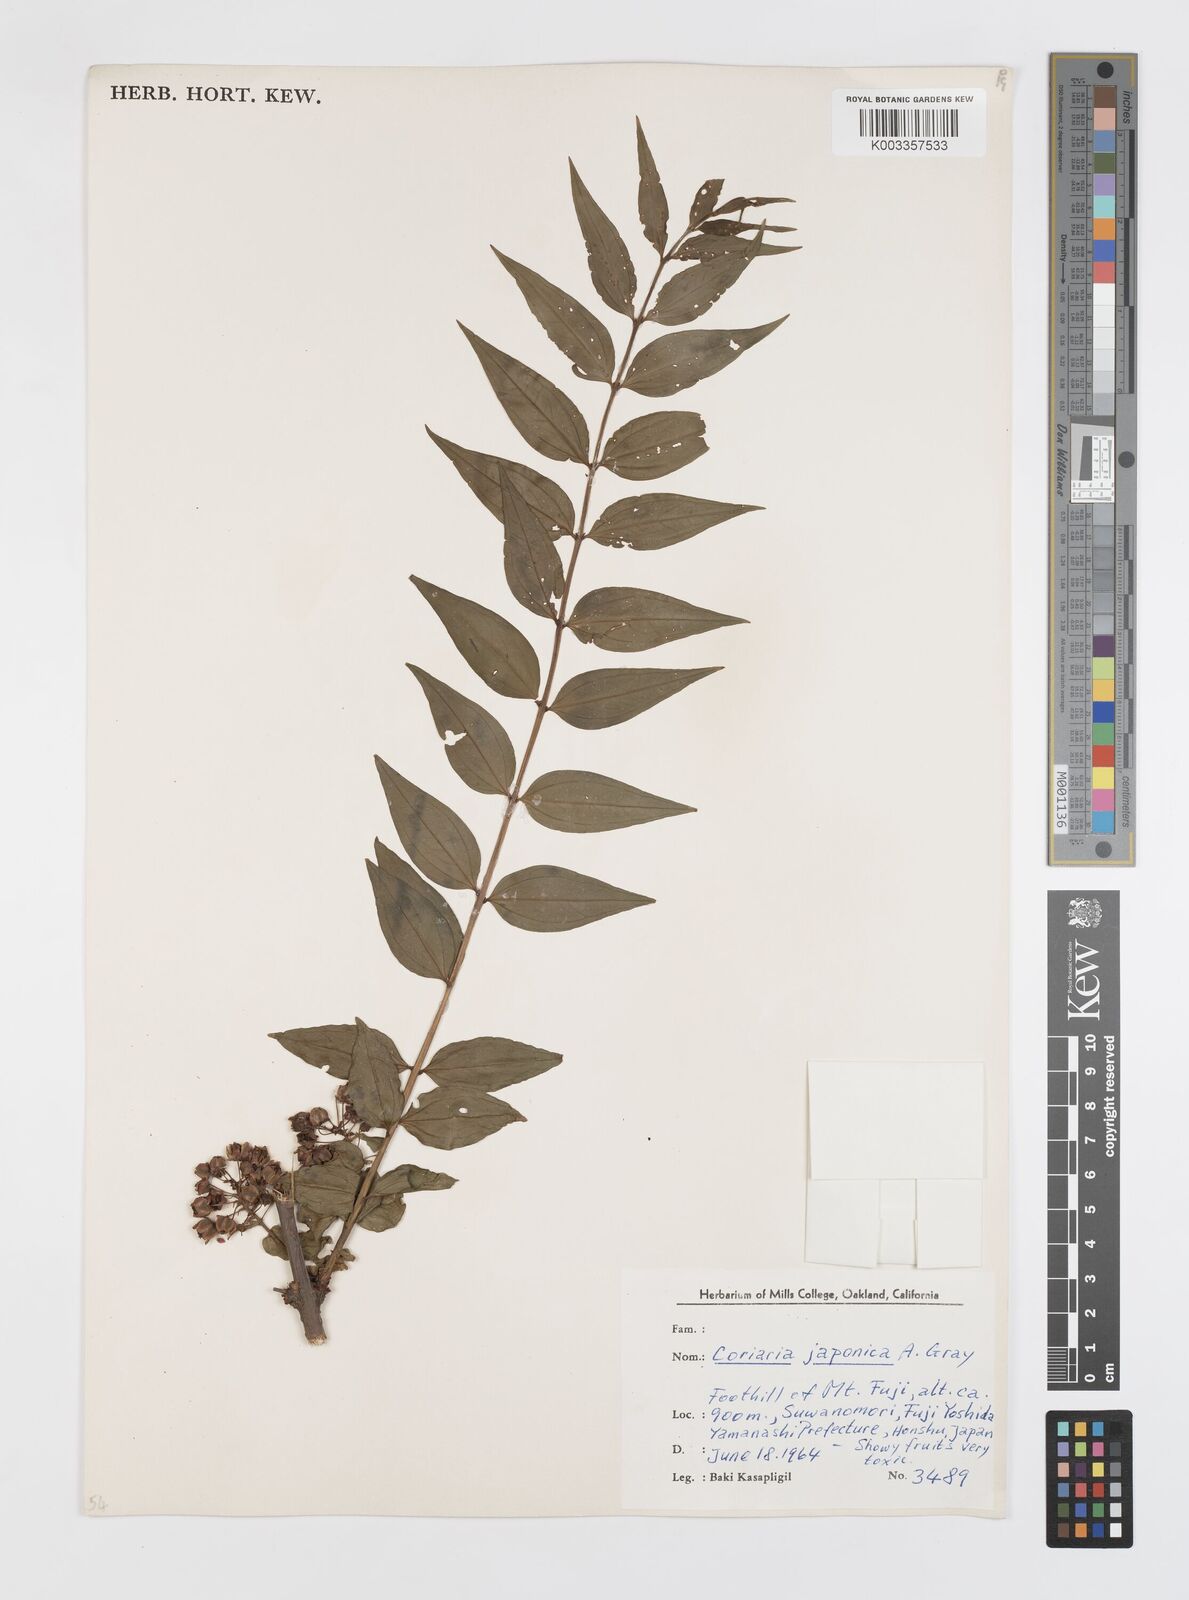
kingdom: Plantae
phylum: Tracheophyta
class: Magnoliopsida
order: Cucurbitales
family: Coriariaceae
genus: Coriaria
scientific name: Coriaria japonica
